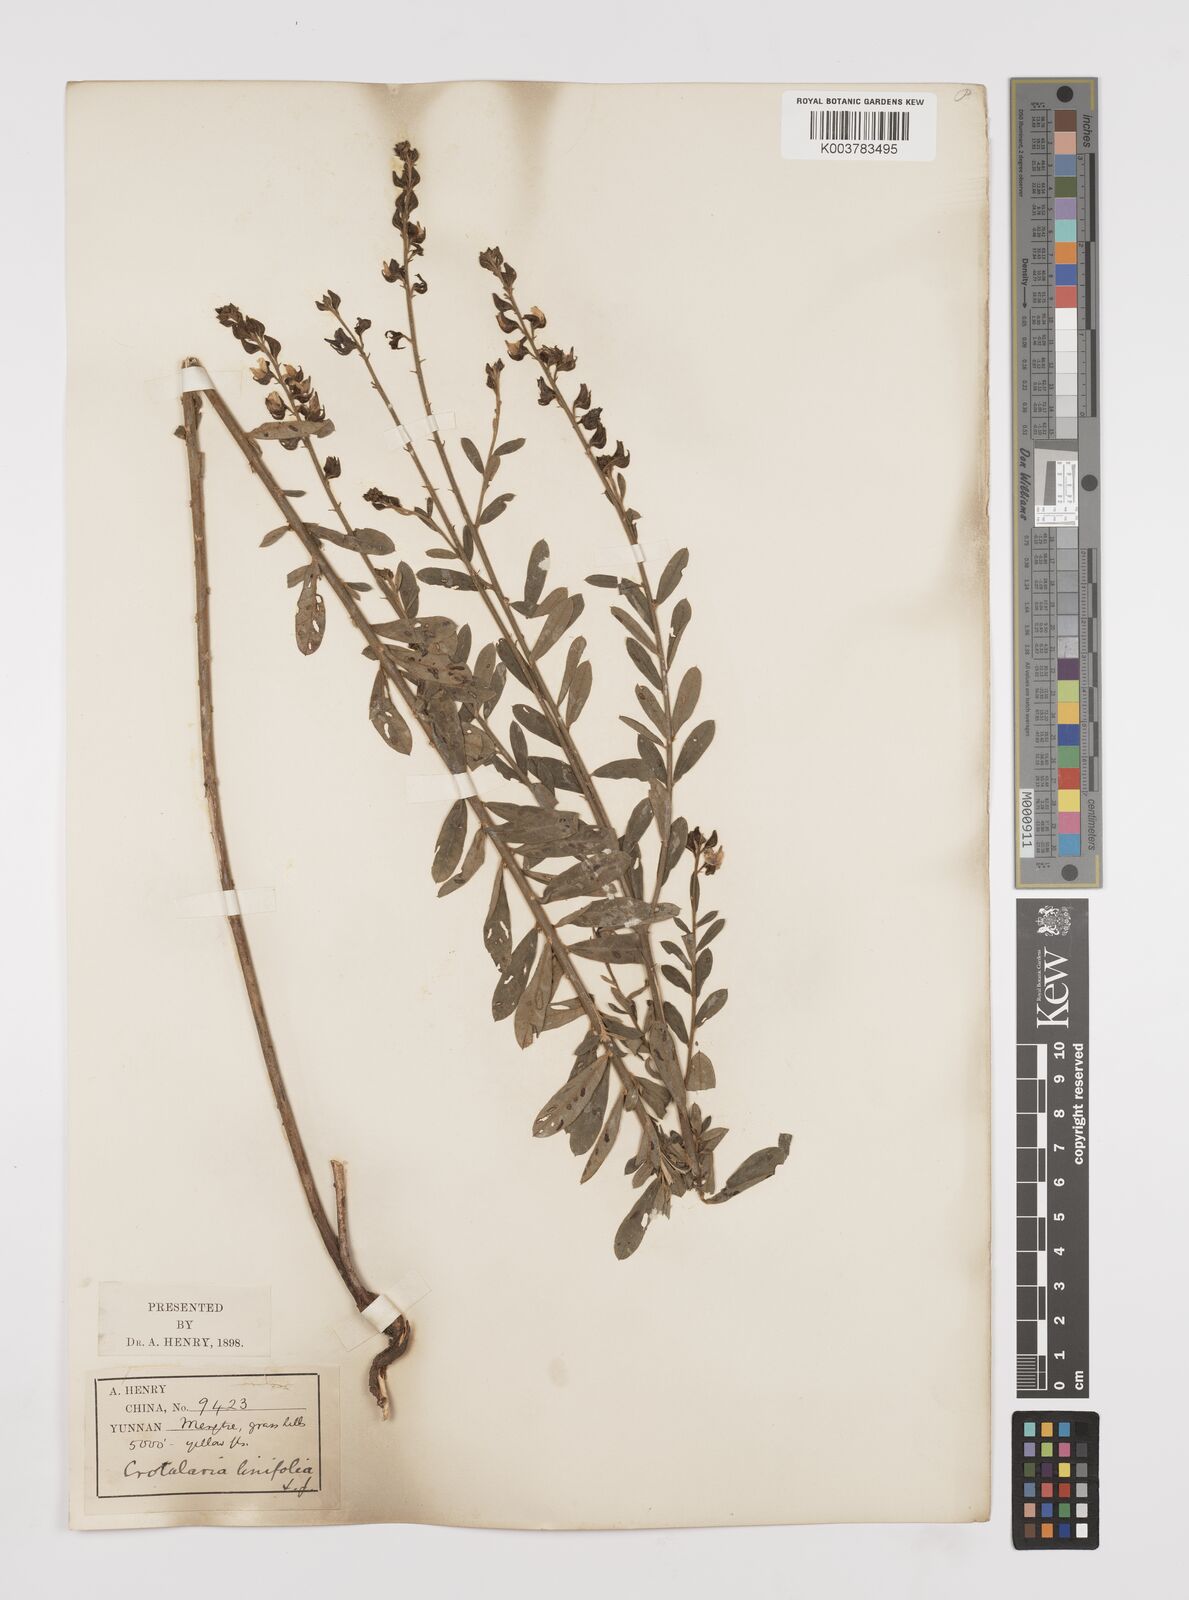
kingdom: Plantae
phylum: Tracheophyta
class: Magnoliopsida
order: Fabales
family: Fabaceae
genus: Crotalaria
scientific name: Crotalaria linifolia
